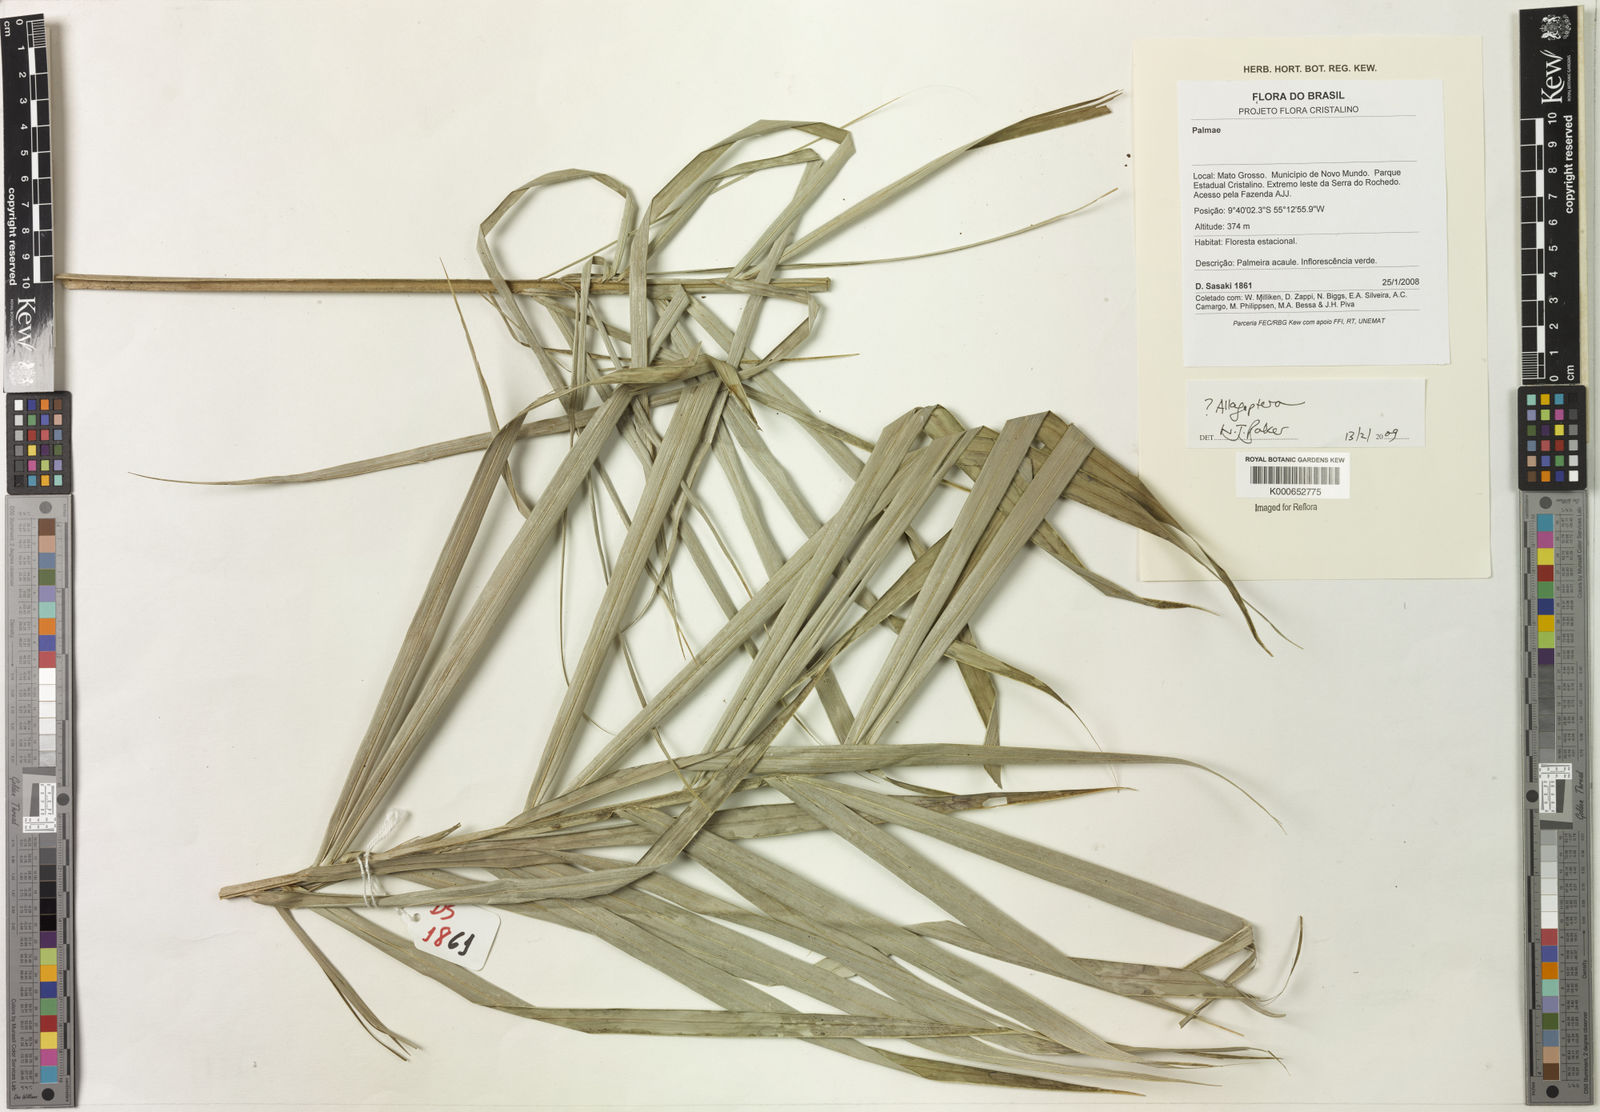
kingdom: Plantae
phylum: Tracheophyta
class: Liliopsida
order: Arecales
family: Arecaceae
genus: Allagoptera
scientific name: Allagoptera
